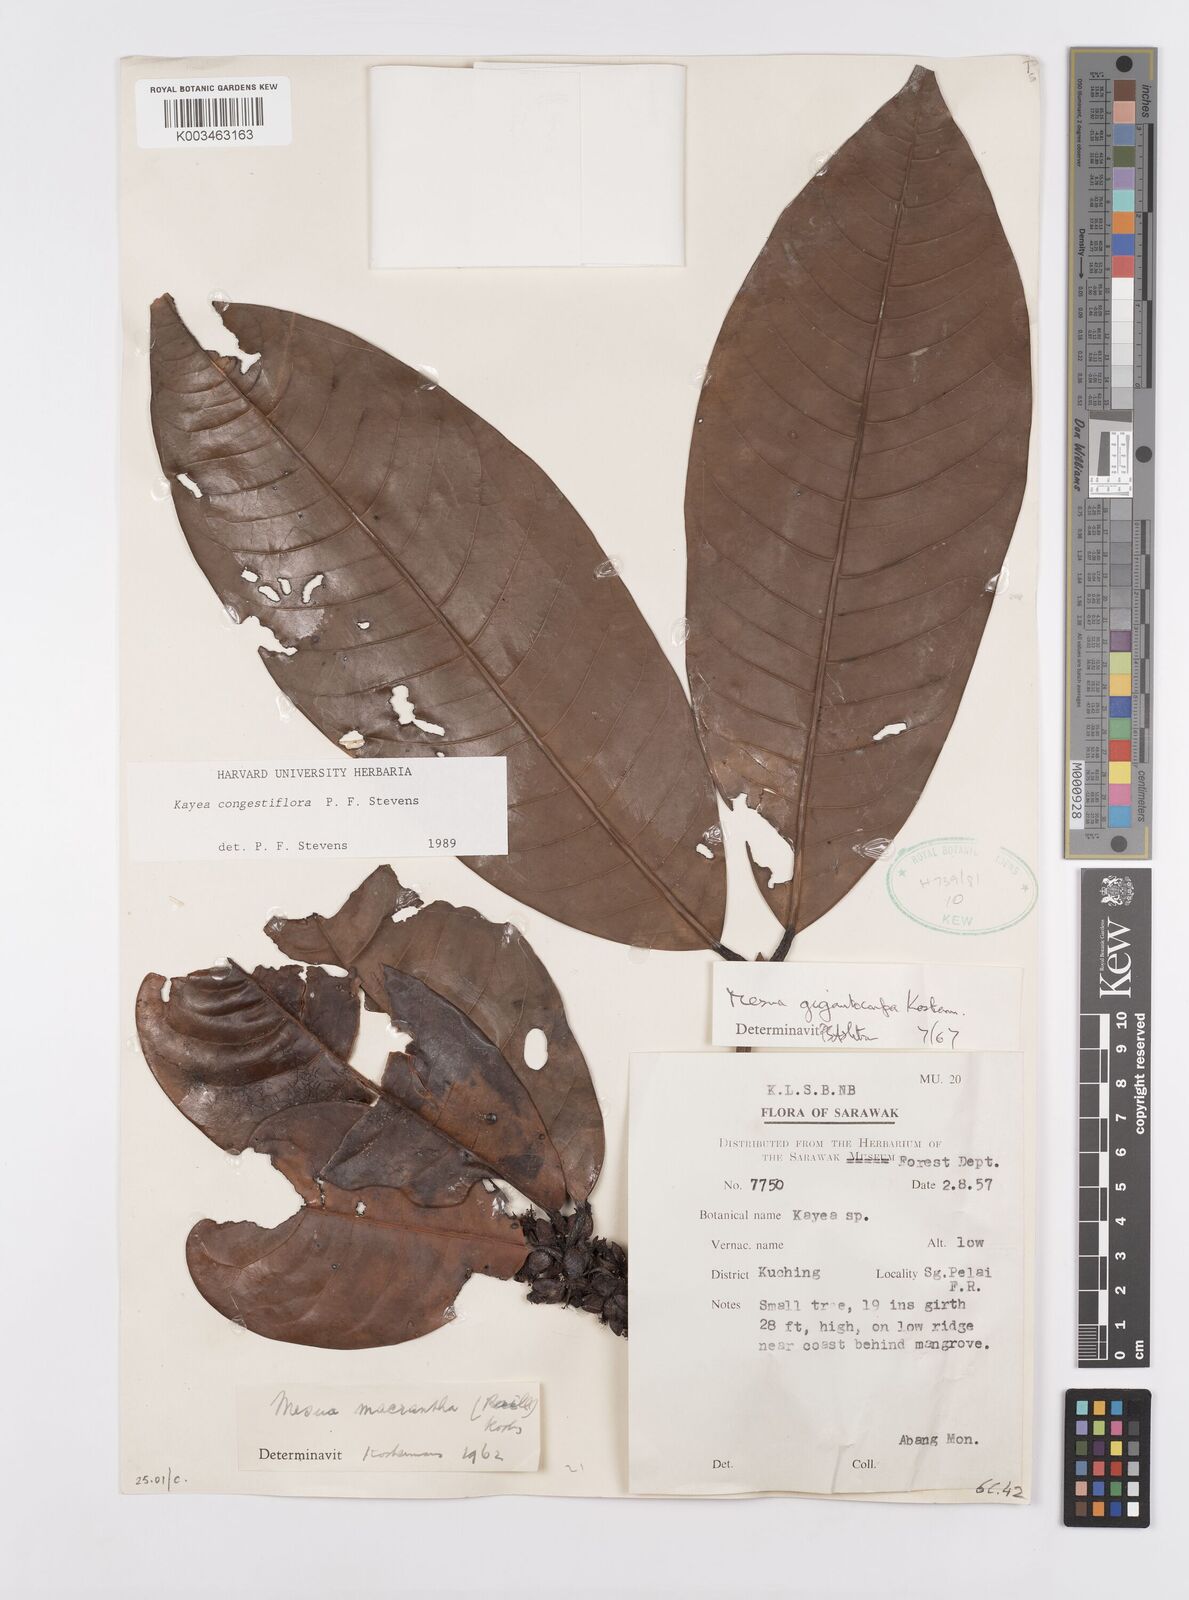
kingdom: Plantae
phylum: Tracheophyta
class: Magnoliopsida
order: Malpighiales
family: Calophyllaceae
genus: Kayea
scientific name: Kayea
